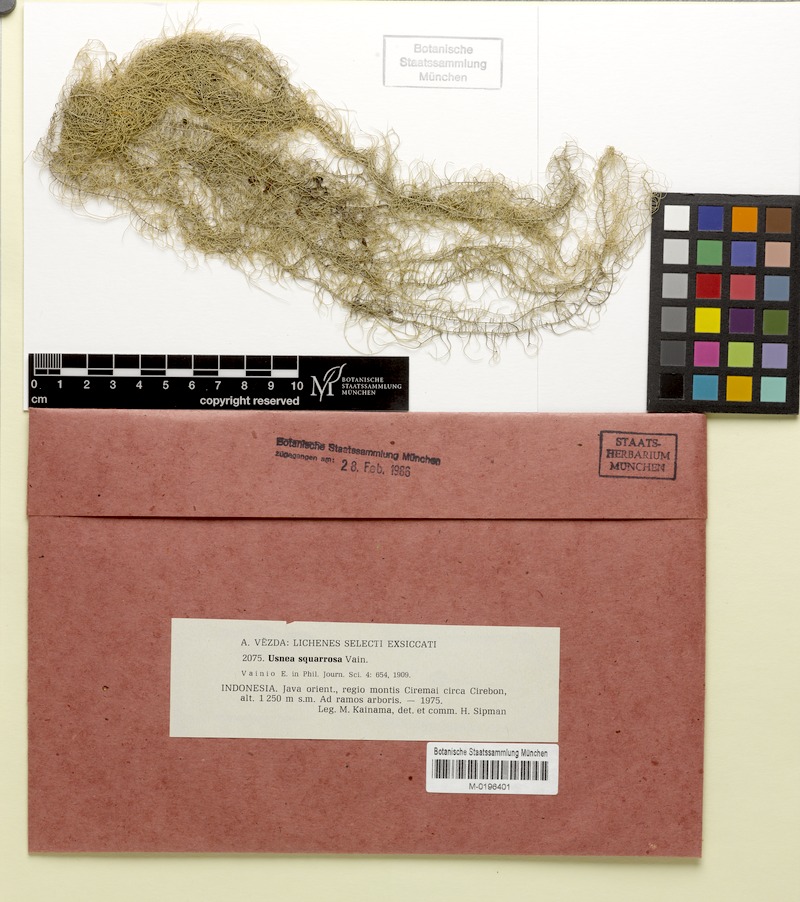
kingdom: Fungi
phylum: Ascomycota
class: Lecanoromycetes
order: Lecanorales
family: Parmeliaceae
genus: Eumitria
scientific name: Eumitria pectinata
